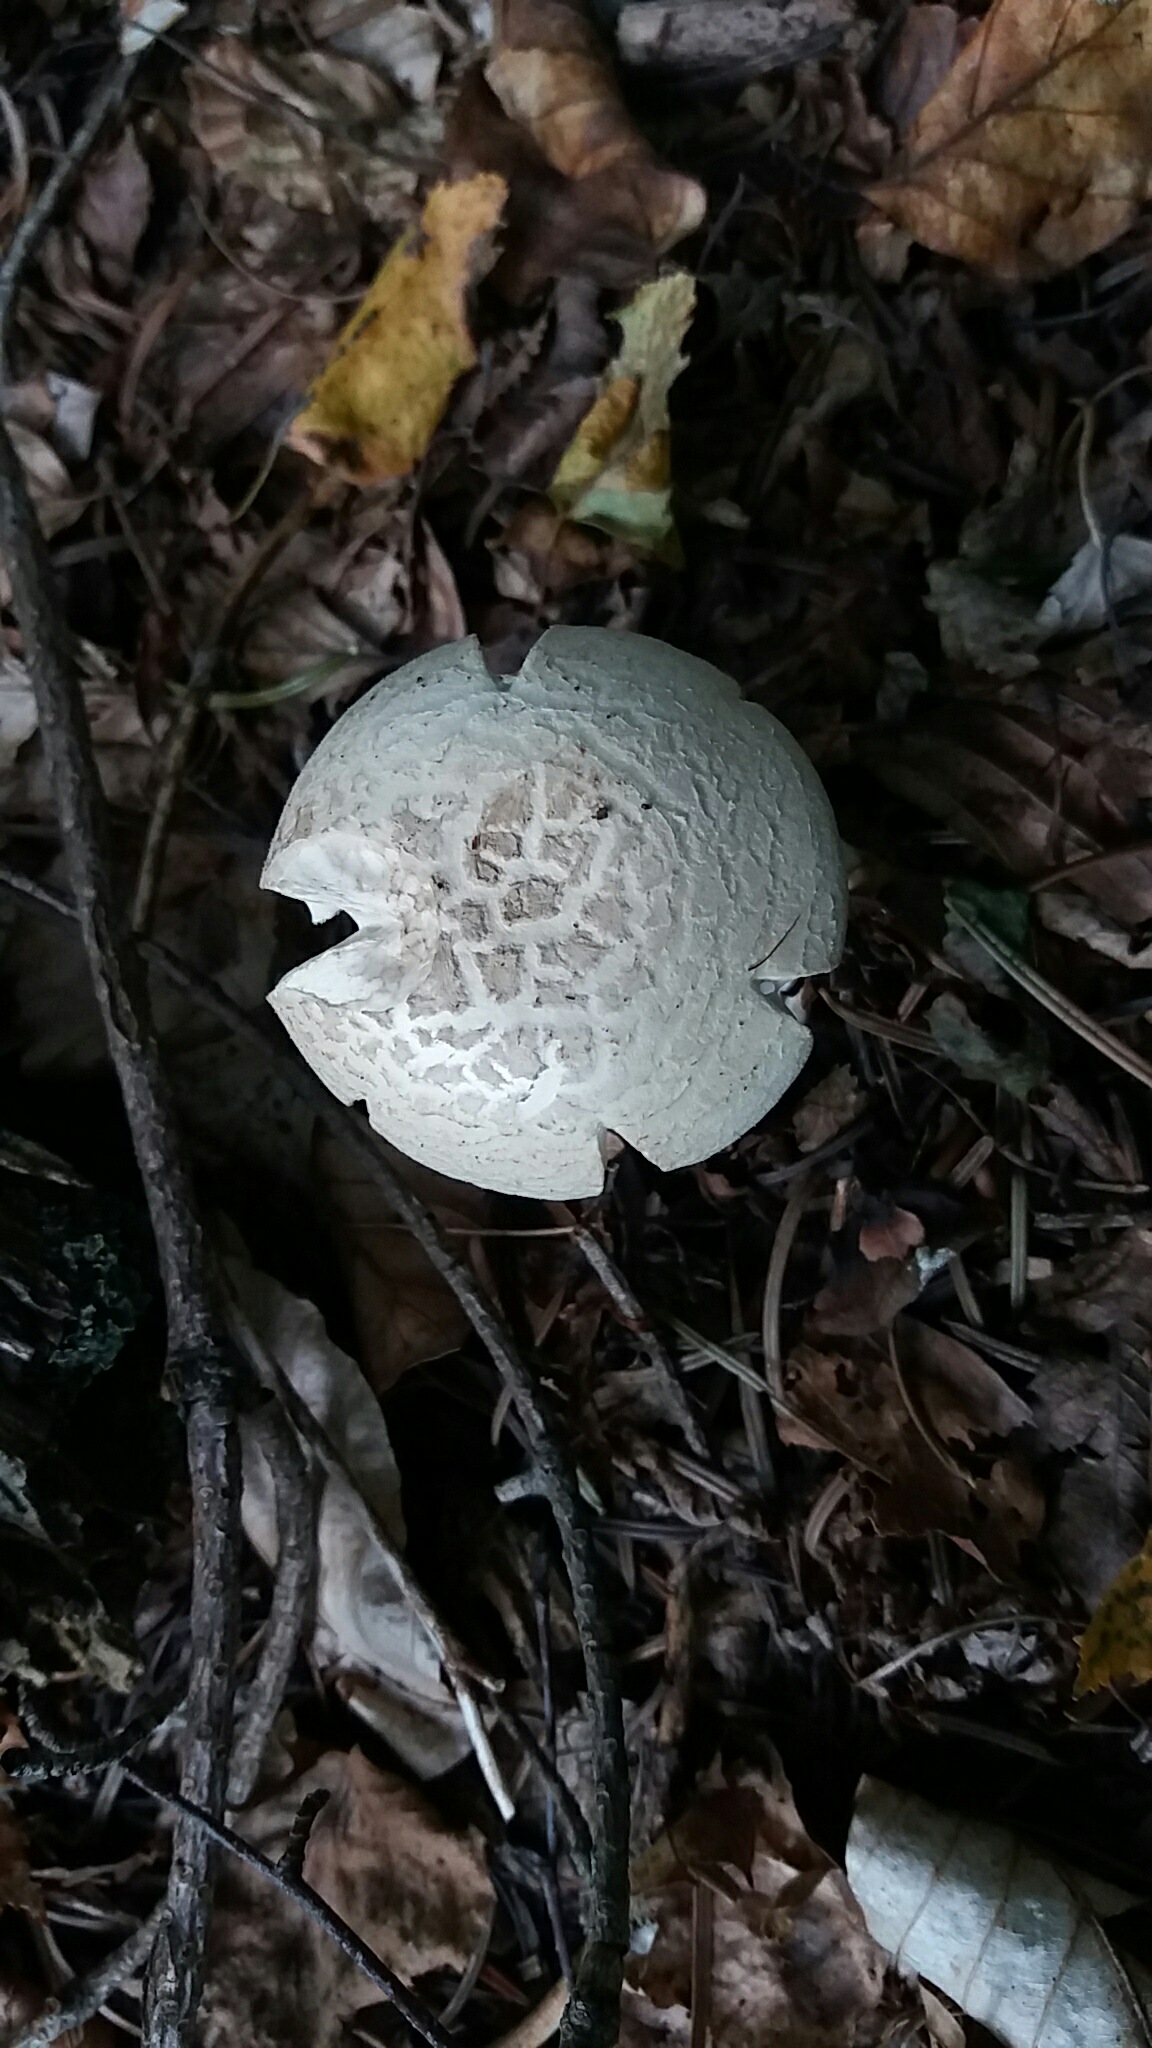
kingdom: Fungi
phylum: Basidiomycota
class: Agaricomycetes
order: Agaricales
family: Amanitaceae
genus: Amanita
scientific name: Amanita citrina
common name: False death-cap
